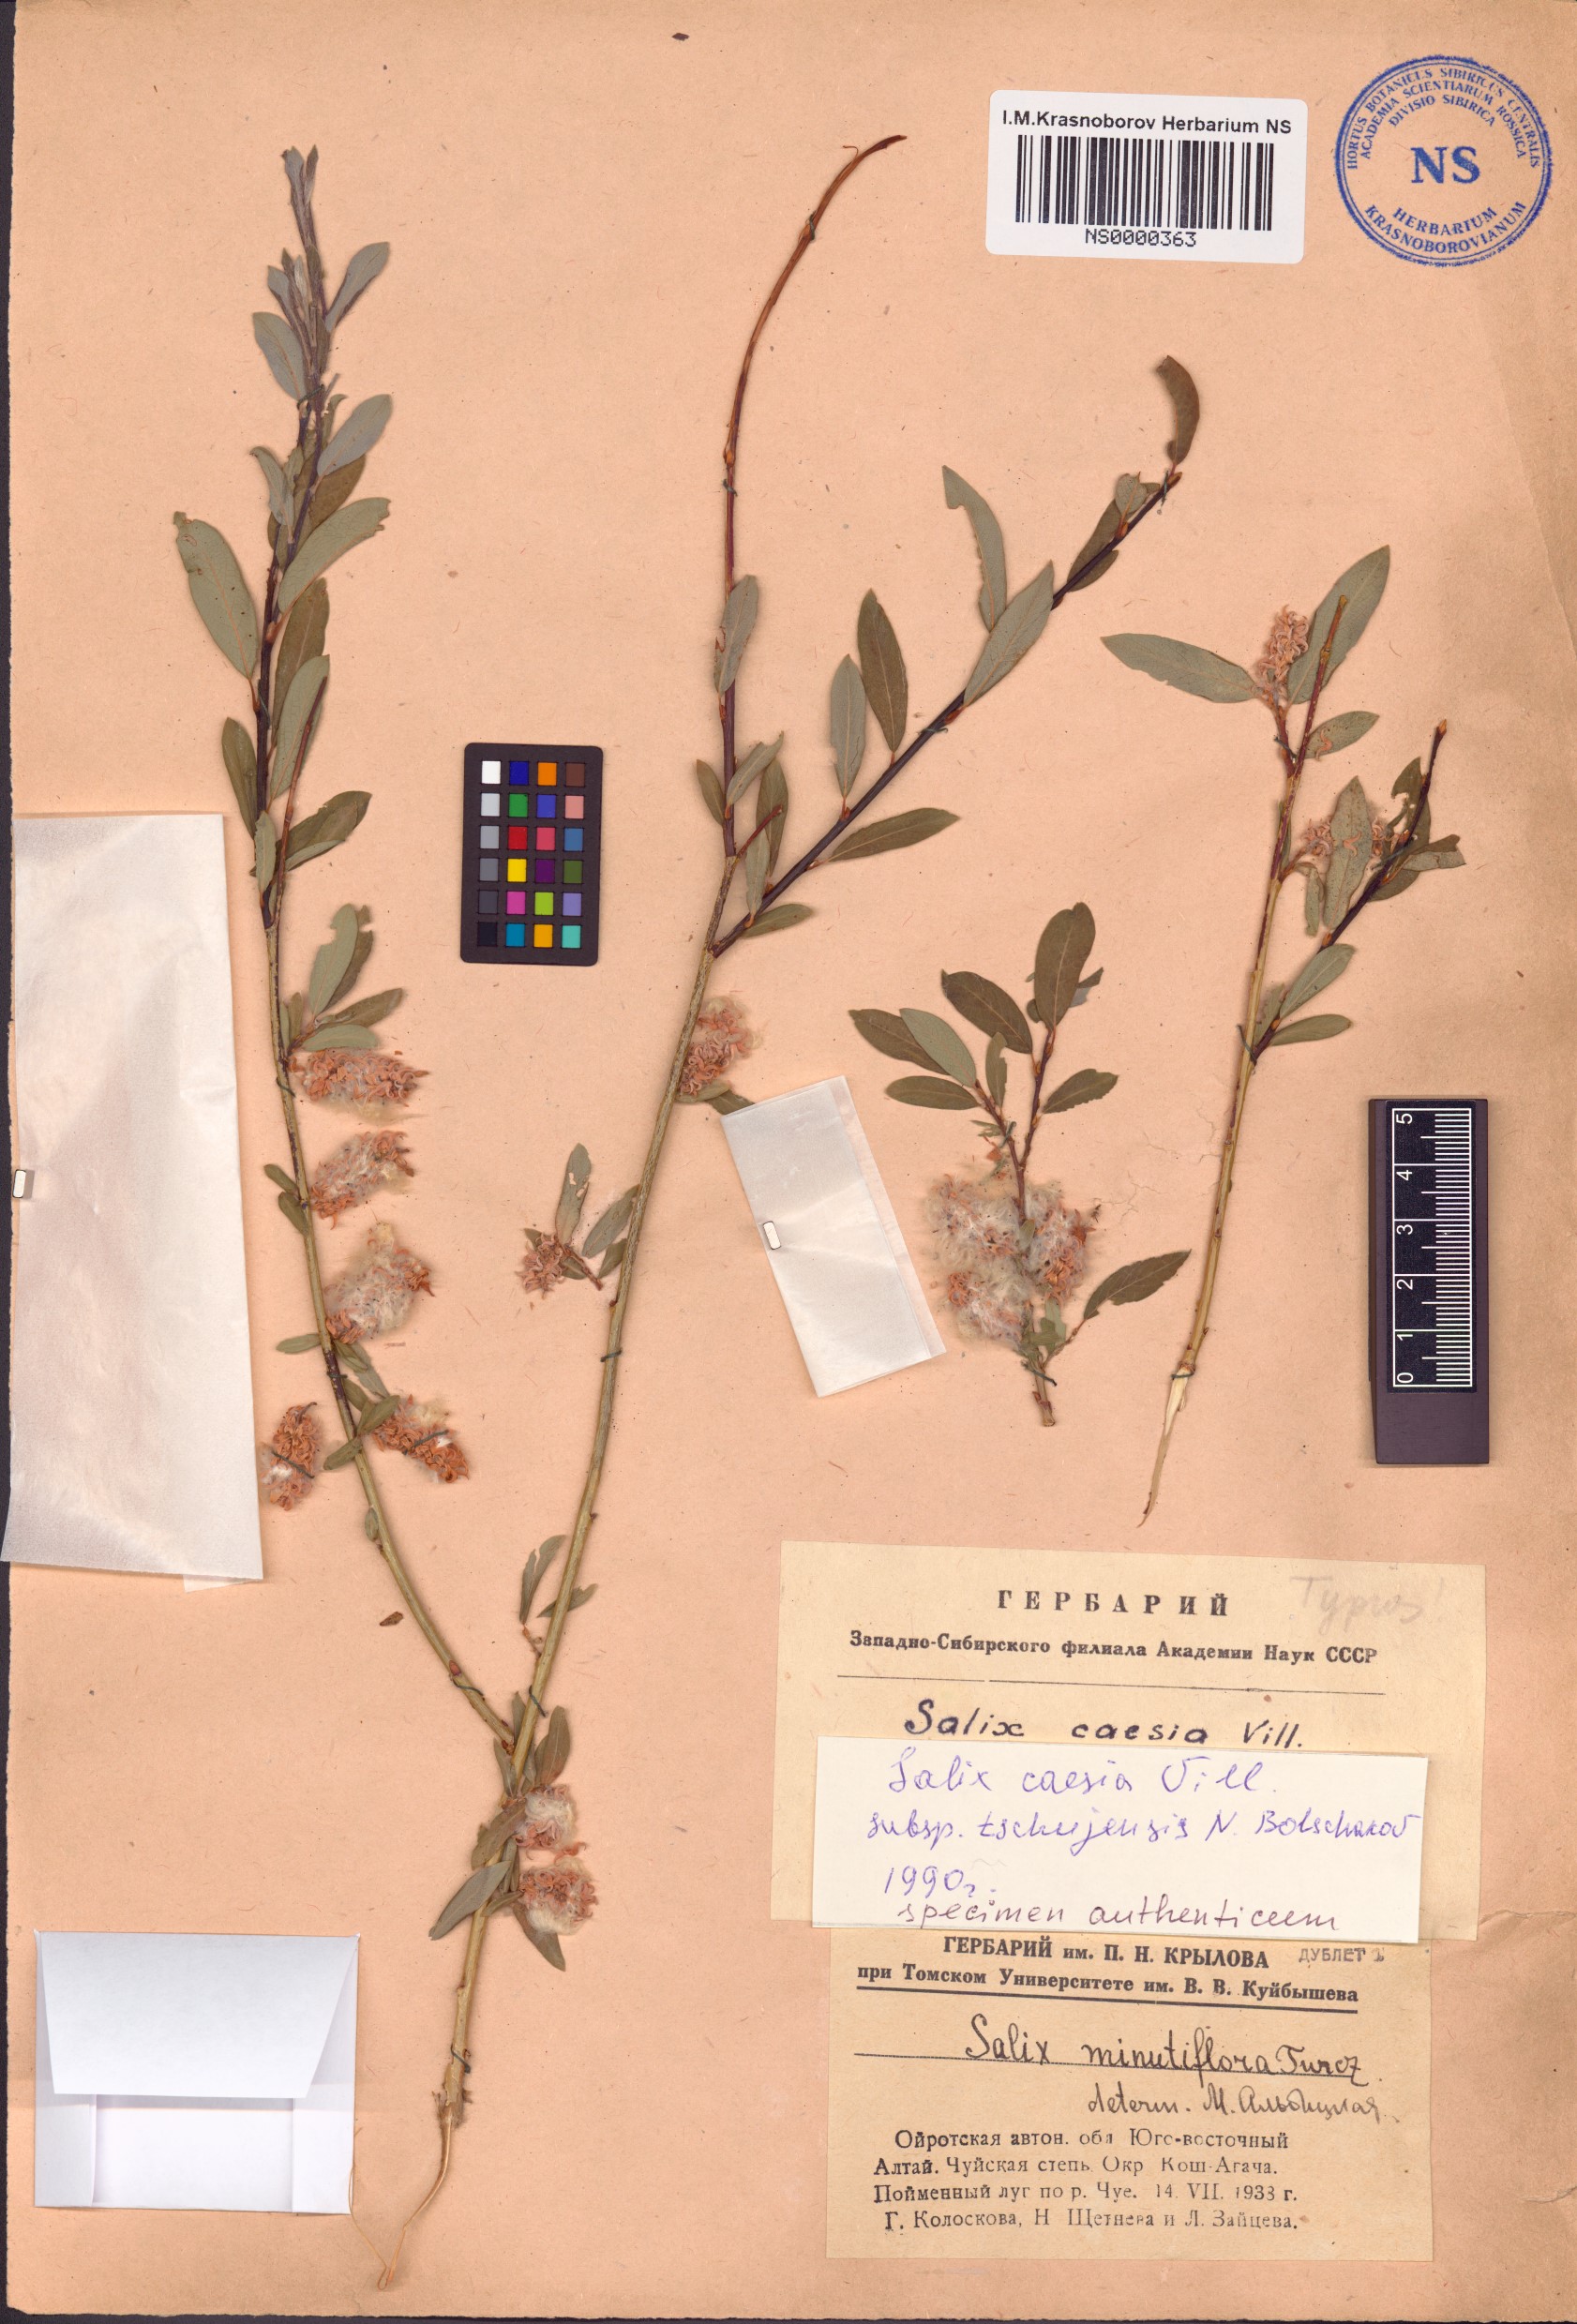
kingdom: Plantae
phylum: Tracheophyta
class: Magnoliopsida
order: Malpighiales
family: Salicaceae
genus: Salix
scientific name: Salix caesia
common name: Blue willow
